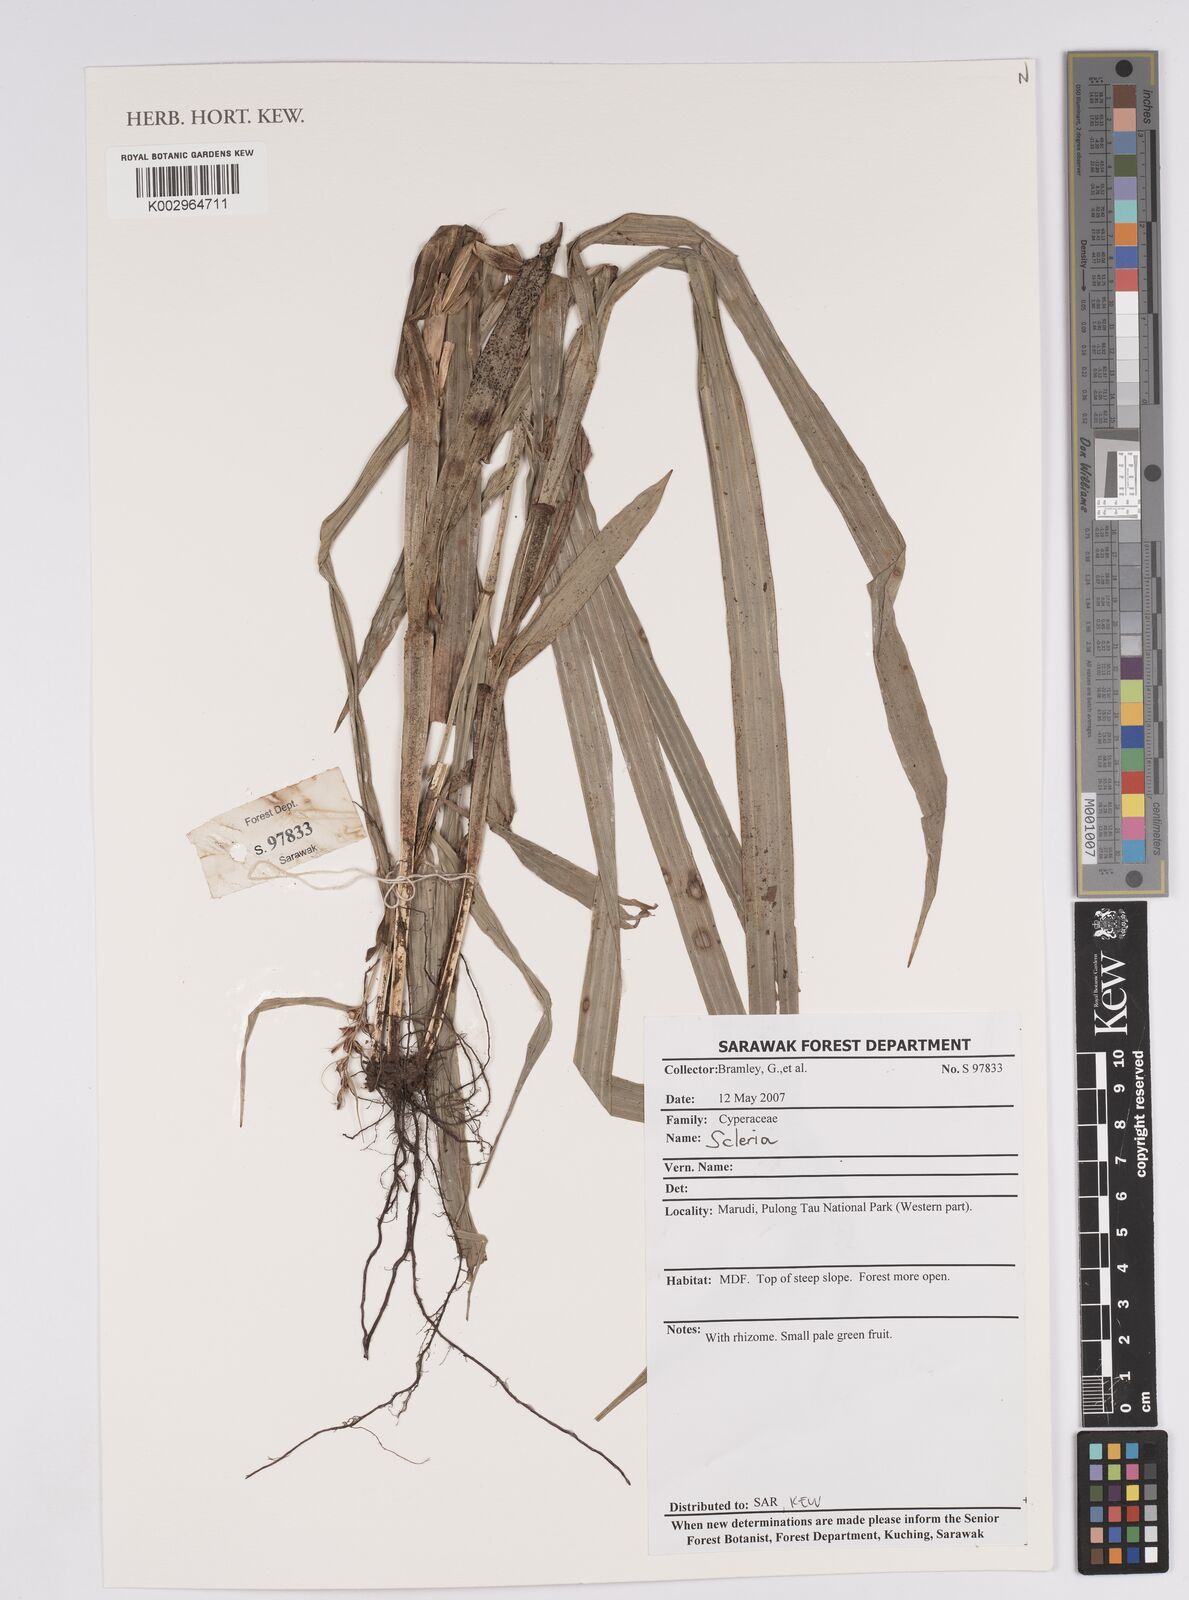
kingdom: Plantae
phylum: Tracheophyta
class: Liliopsida
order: Poales
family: Cyperaceae
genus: Scleria
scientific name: Scleria
